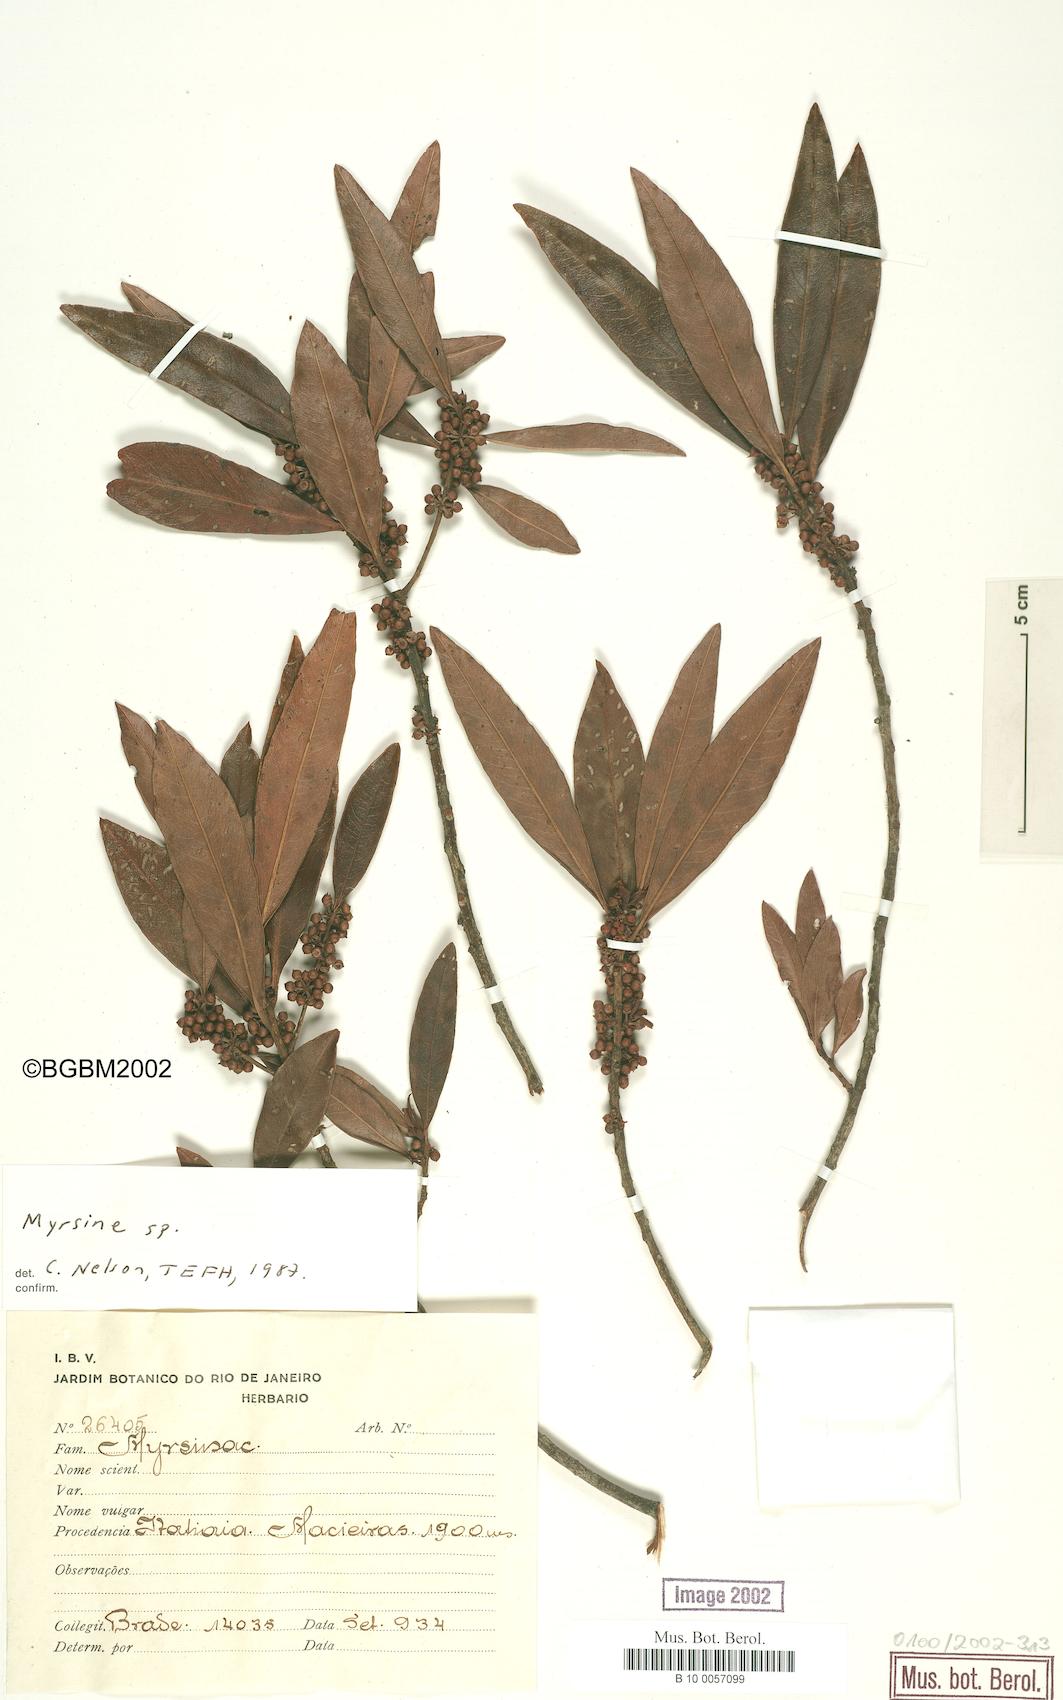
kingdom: Plantae
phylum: Tracheophyta
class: Magnoliopsida
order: Ericales
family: Primulaceae
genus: Myrsine
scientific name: Myrsine
